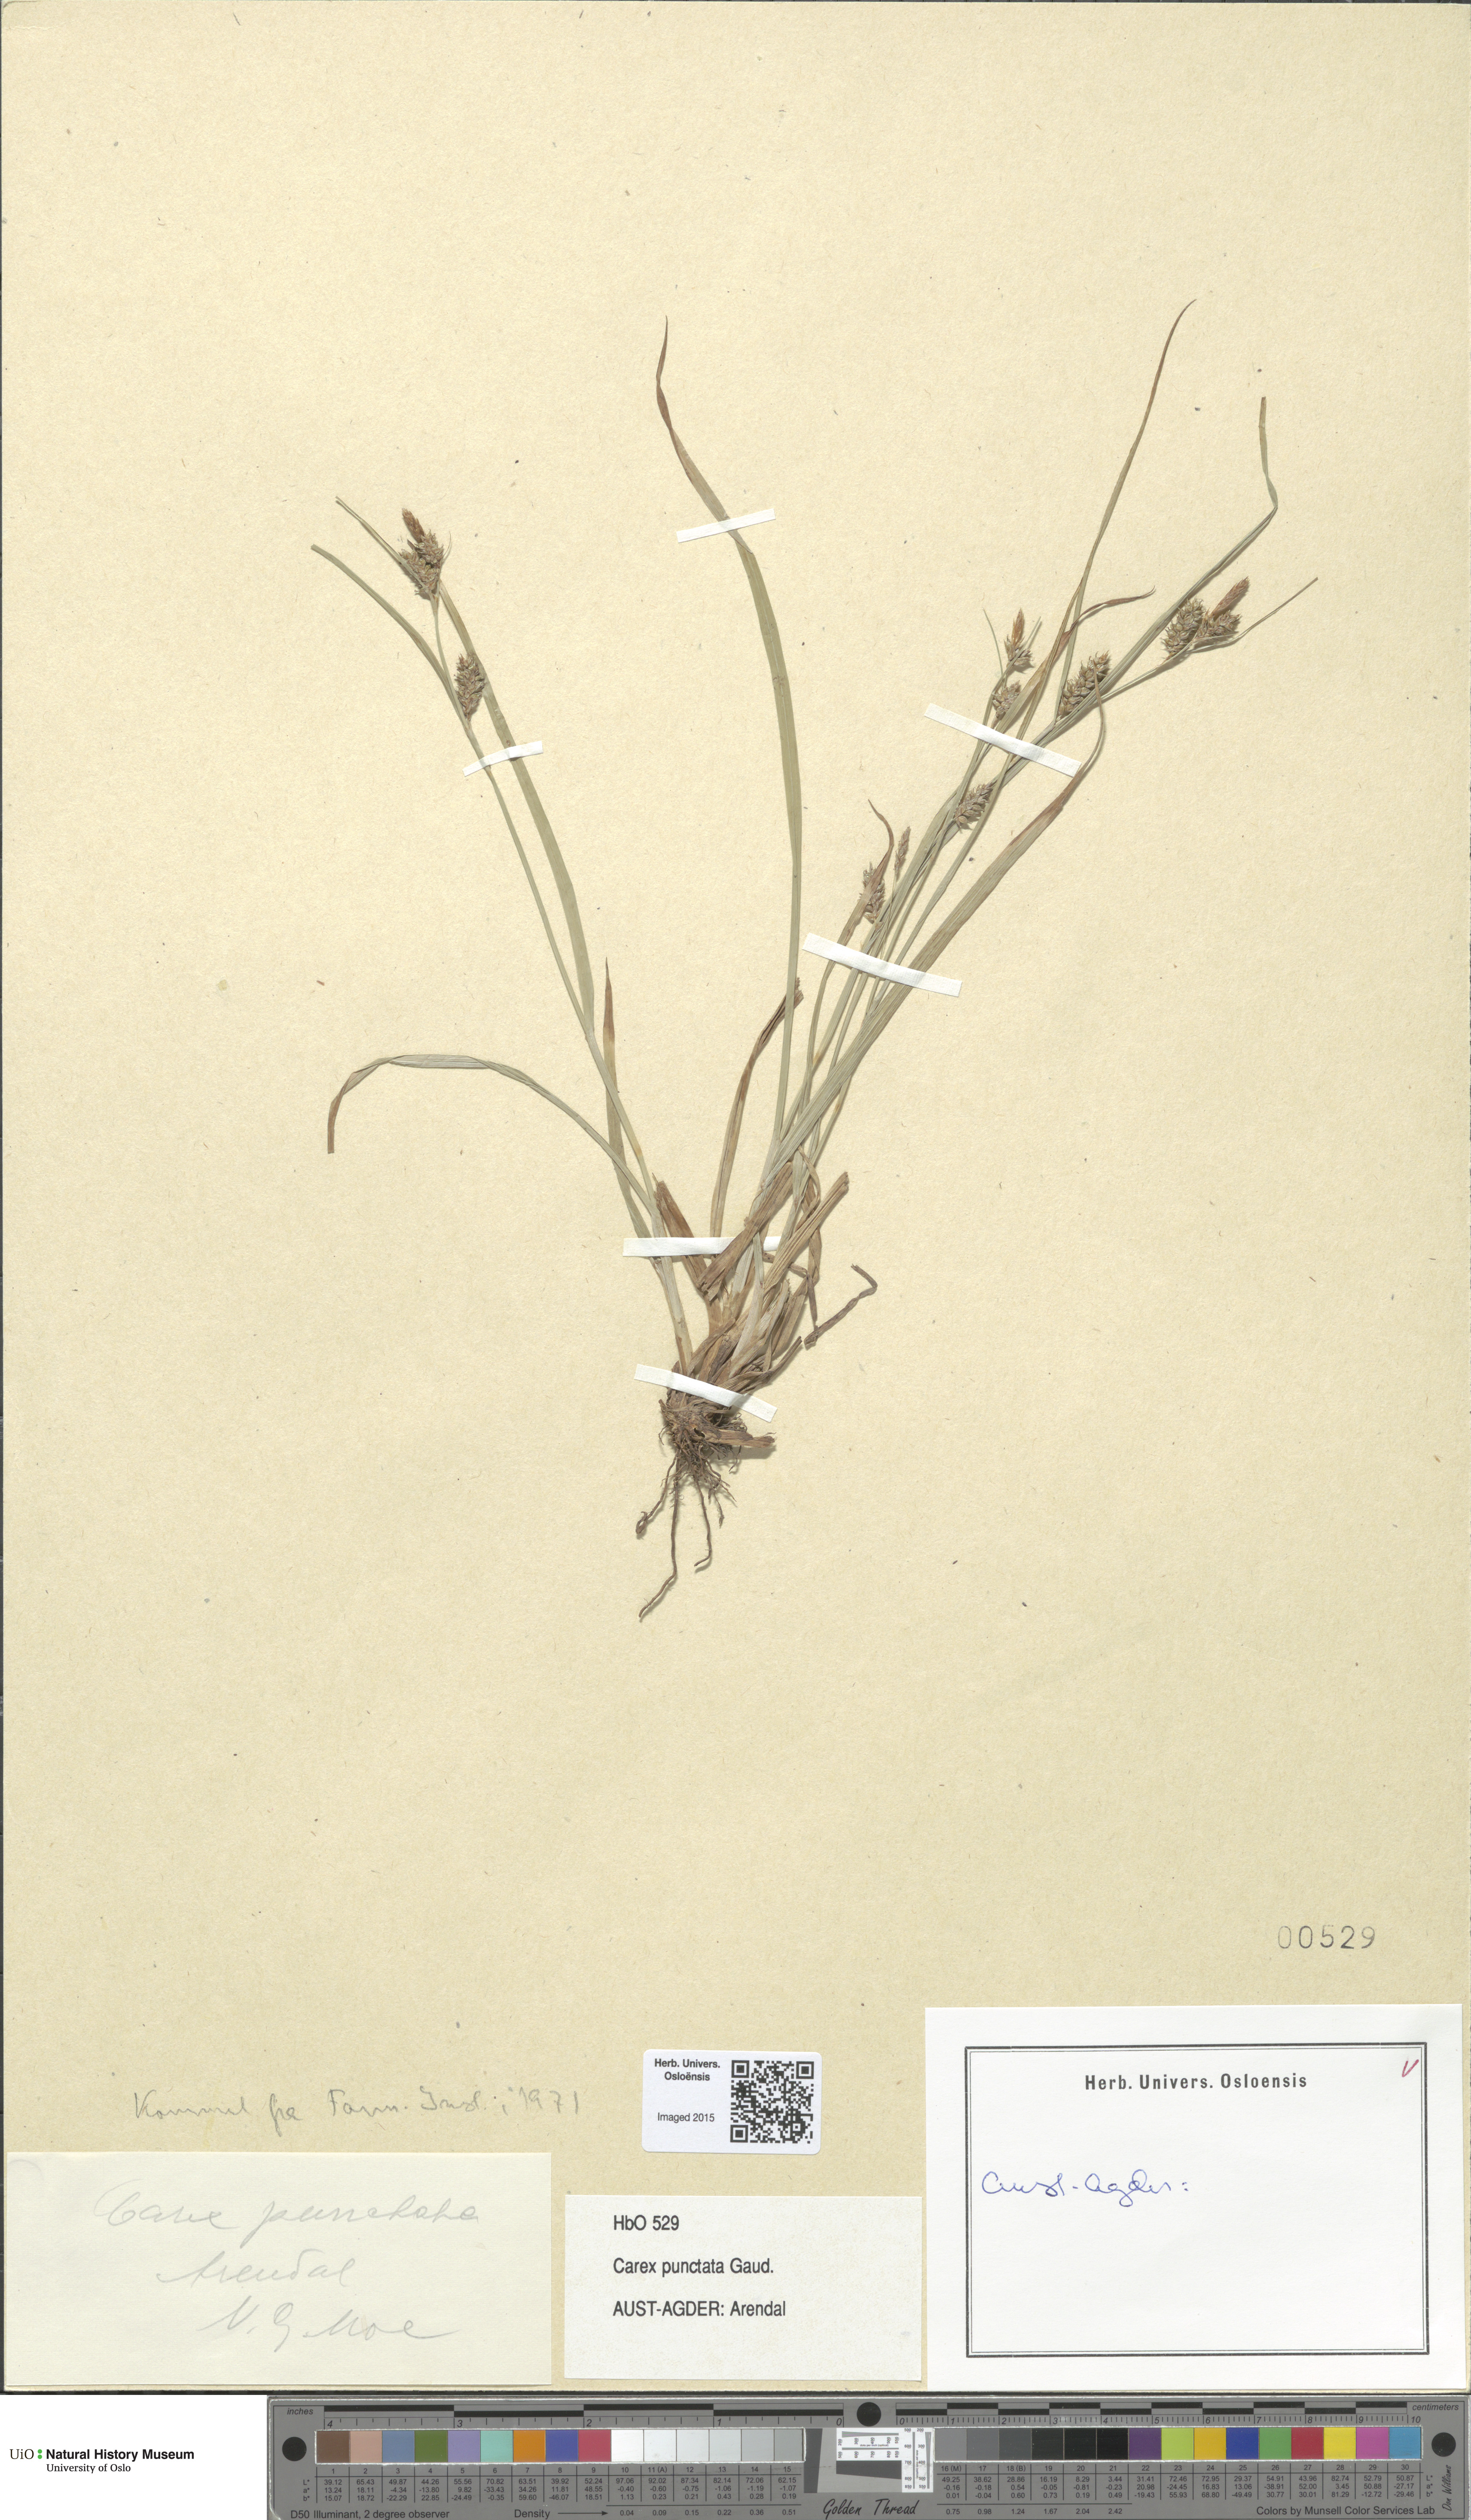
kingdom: Plantae
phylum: Tracheophyta
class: Liliopsida
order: Poales
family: Cyperaceae
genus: Carex
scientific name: Carex punctata
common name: Dotted sedge
